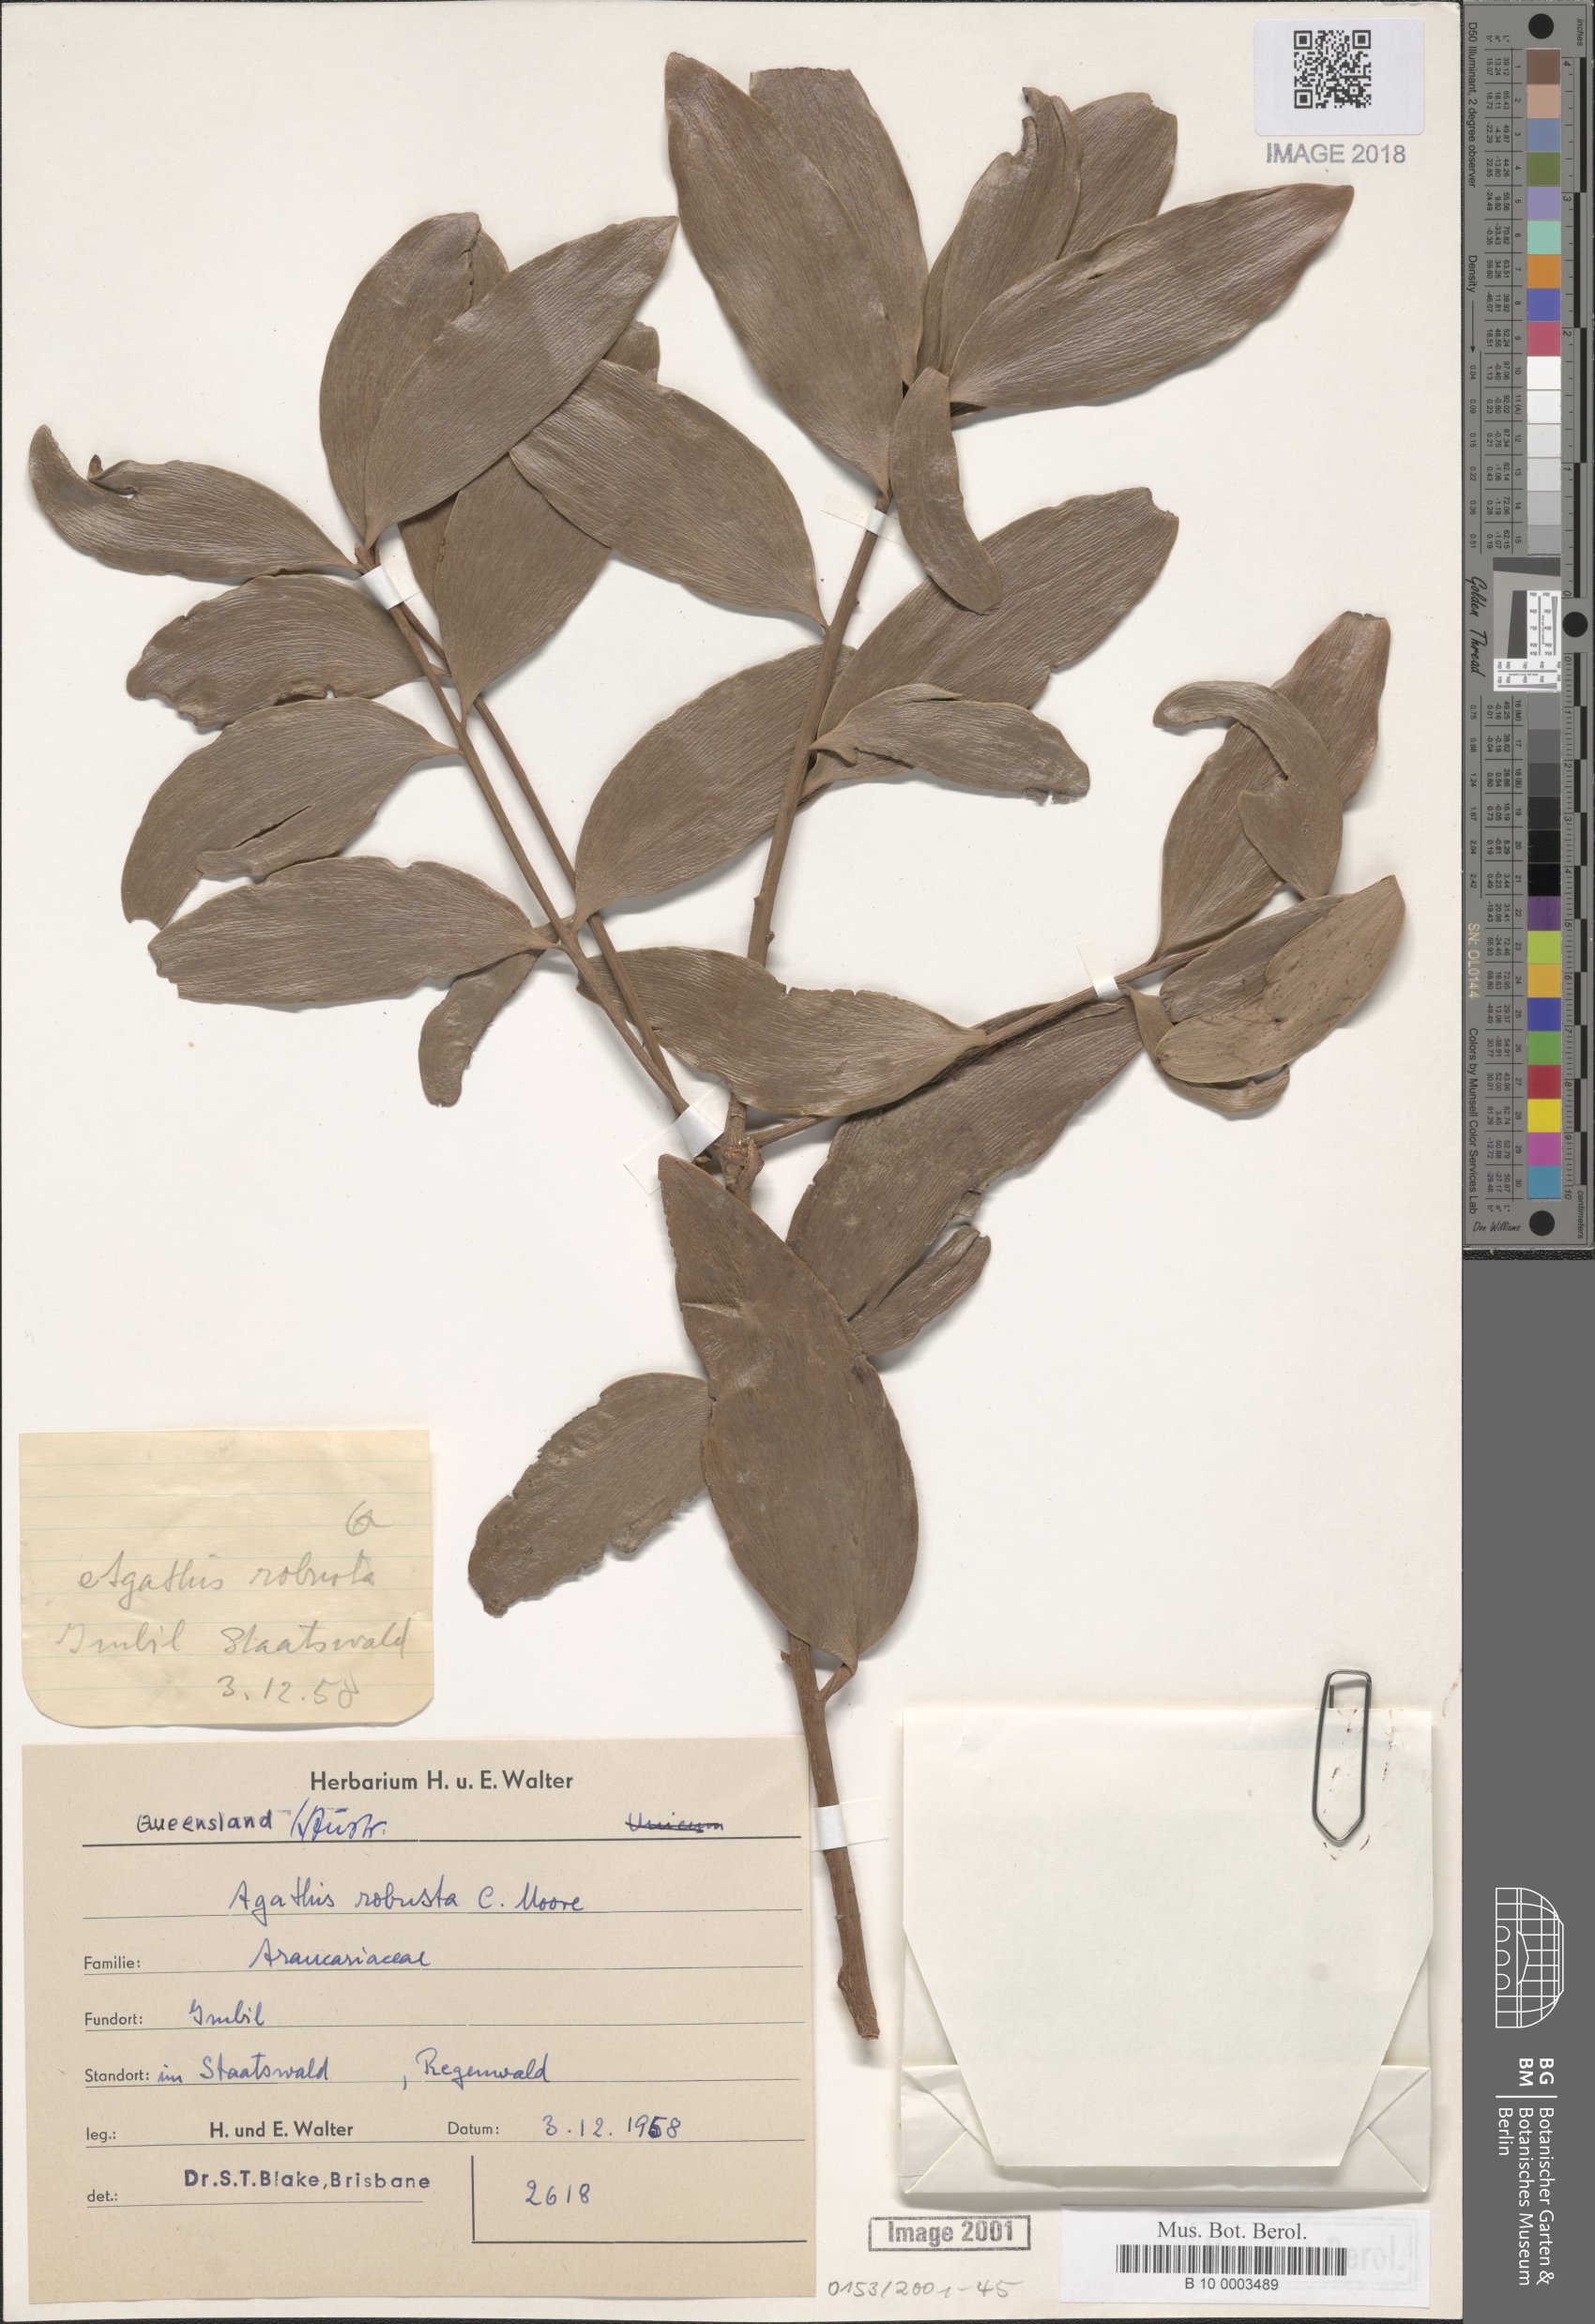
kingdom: Plantae
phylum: Tracheophyta
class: Pinopsida
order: Pinales
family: Araucariaceae
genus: Agathis
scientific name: Agathis robusta
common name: Australian-kauri
